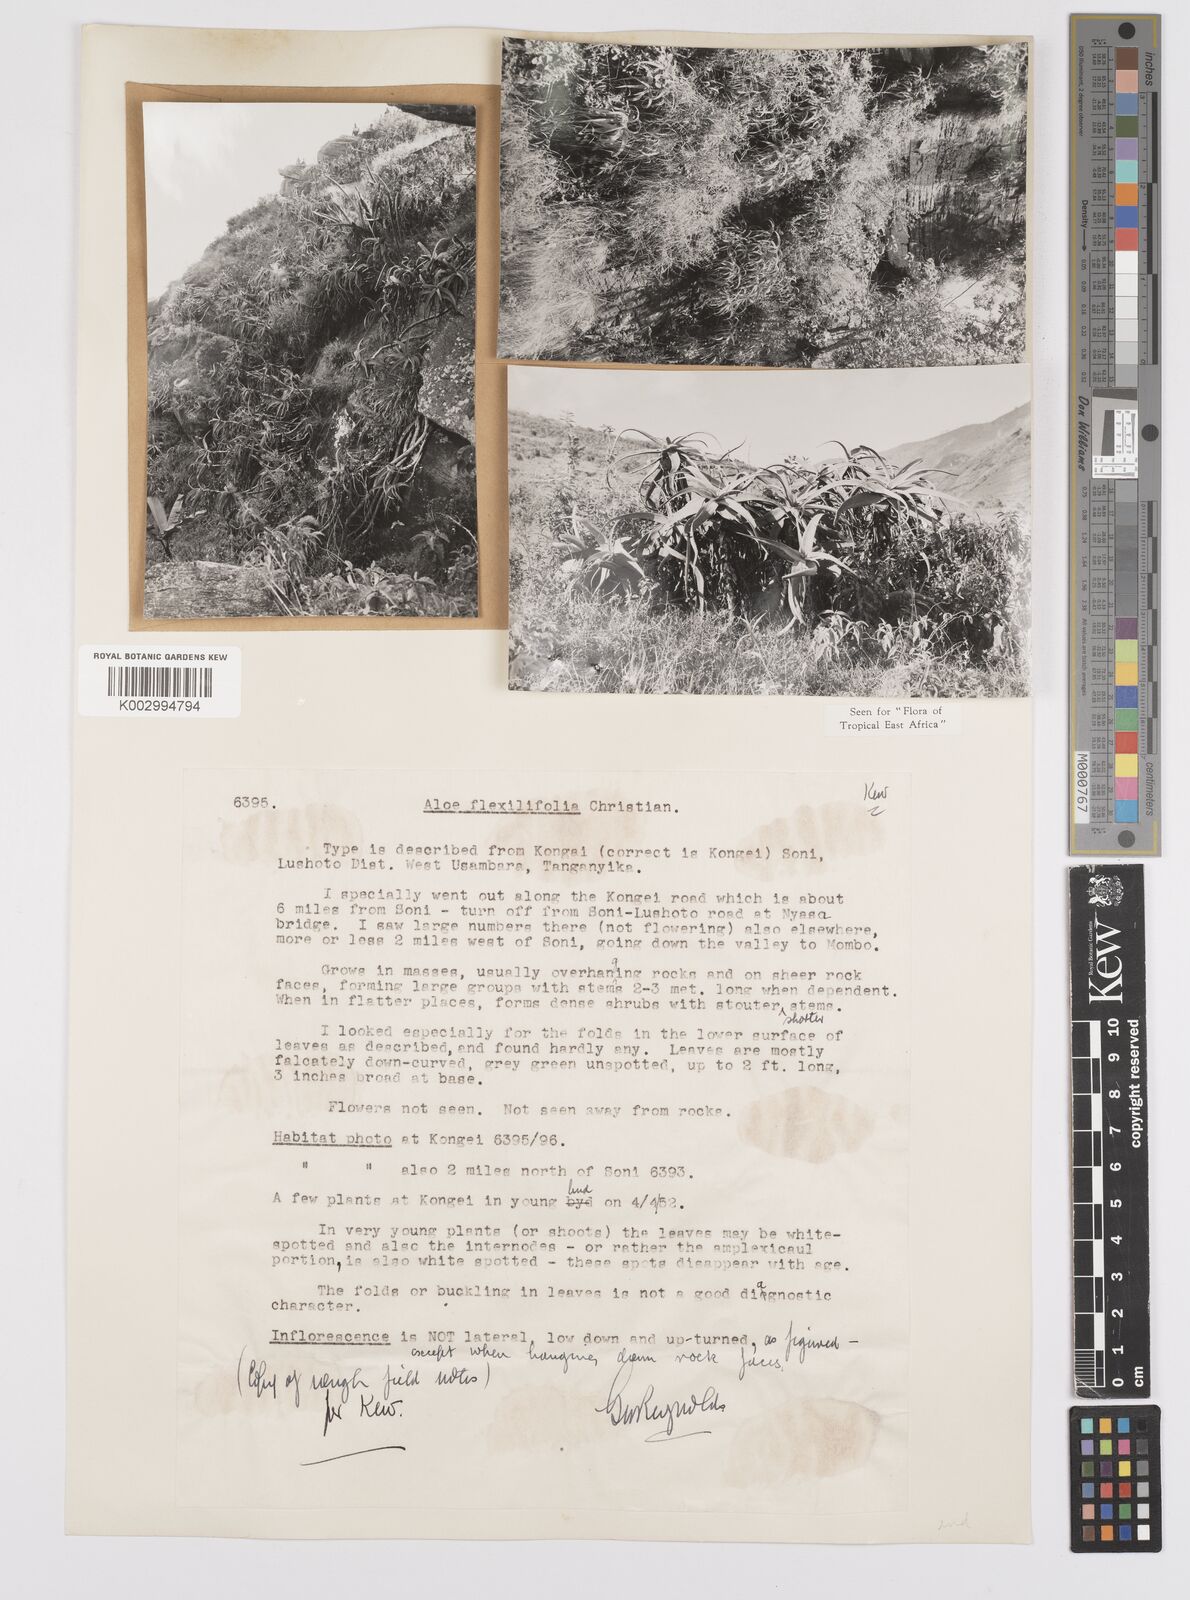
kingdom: Plantae
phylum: Tracheophyta
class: Liliopsida
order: Asparagales
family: Asphodelaceae
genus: Aloe
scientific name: Aloe flexilifolia
